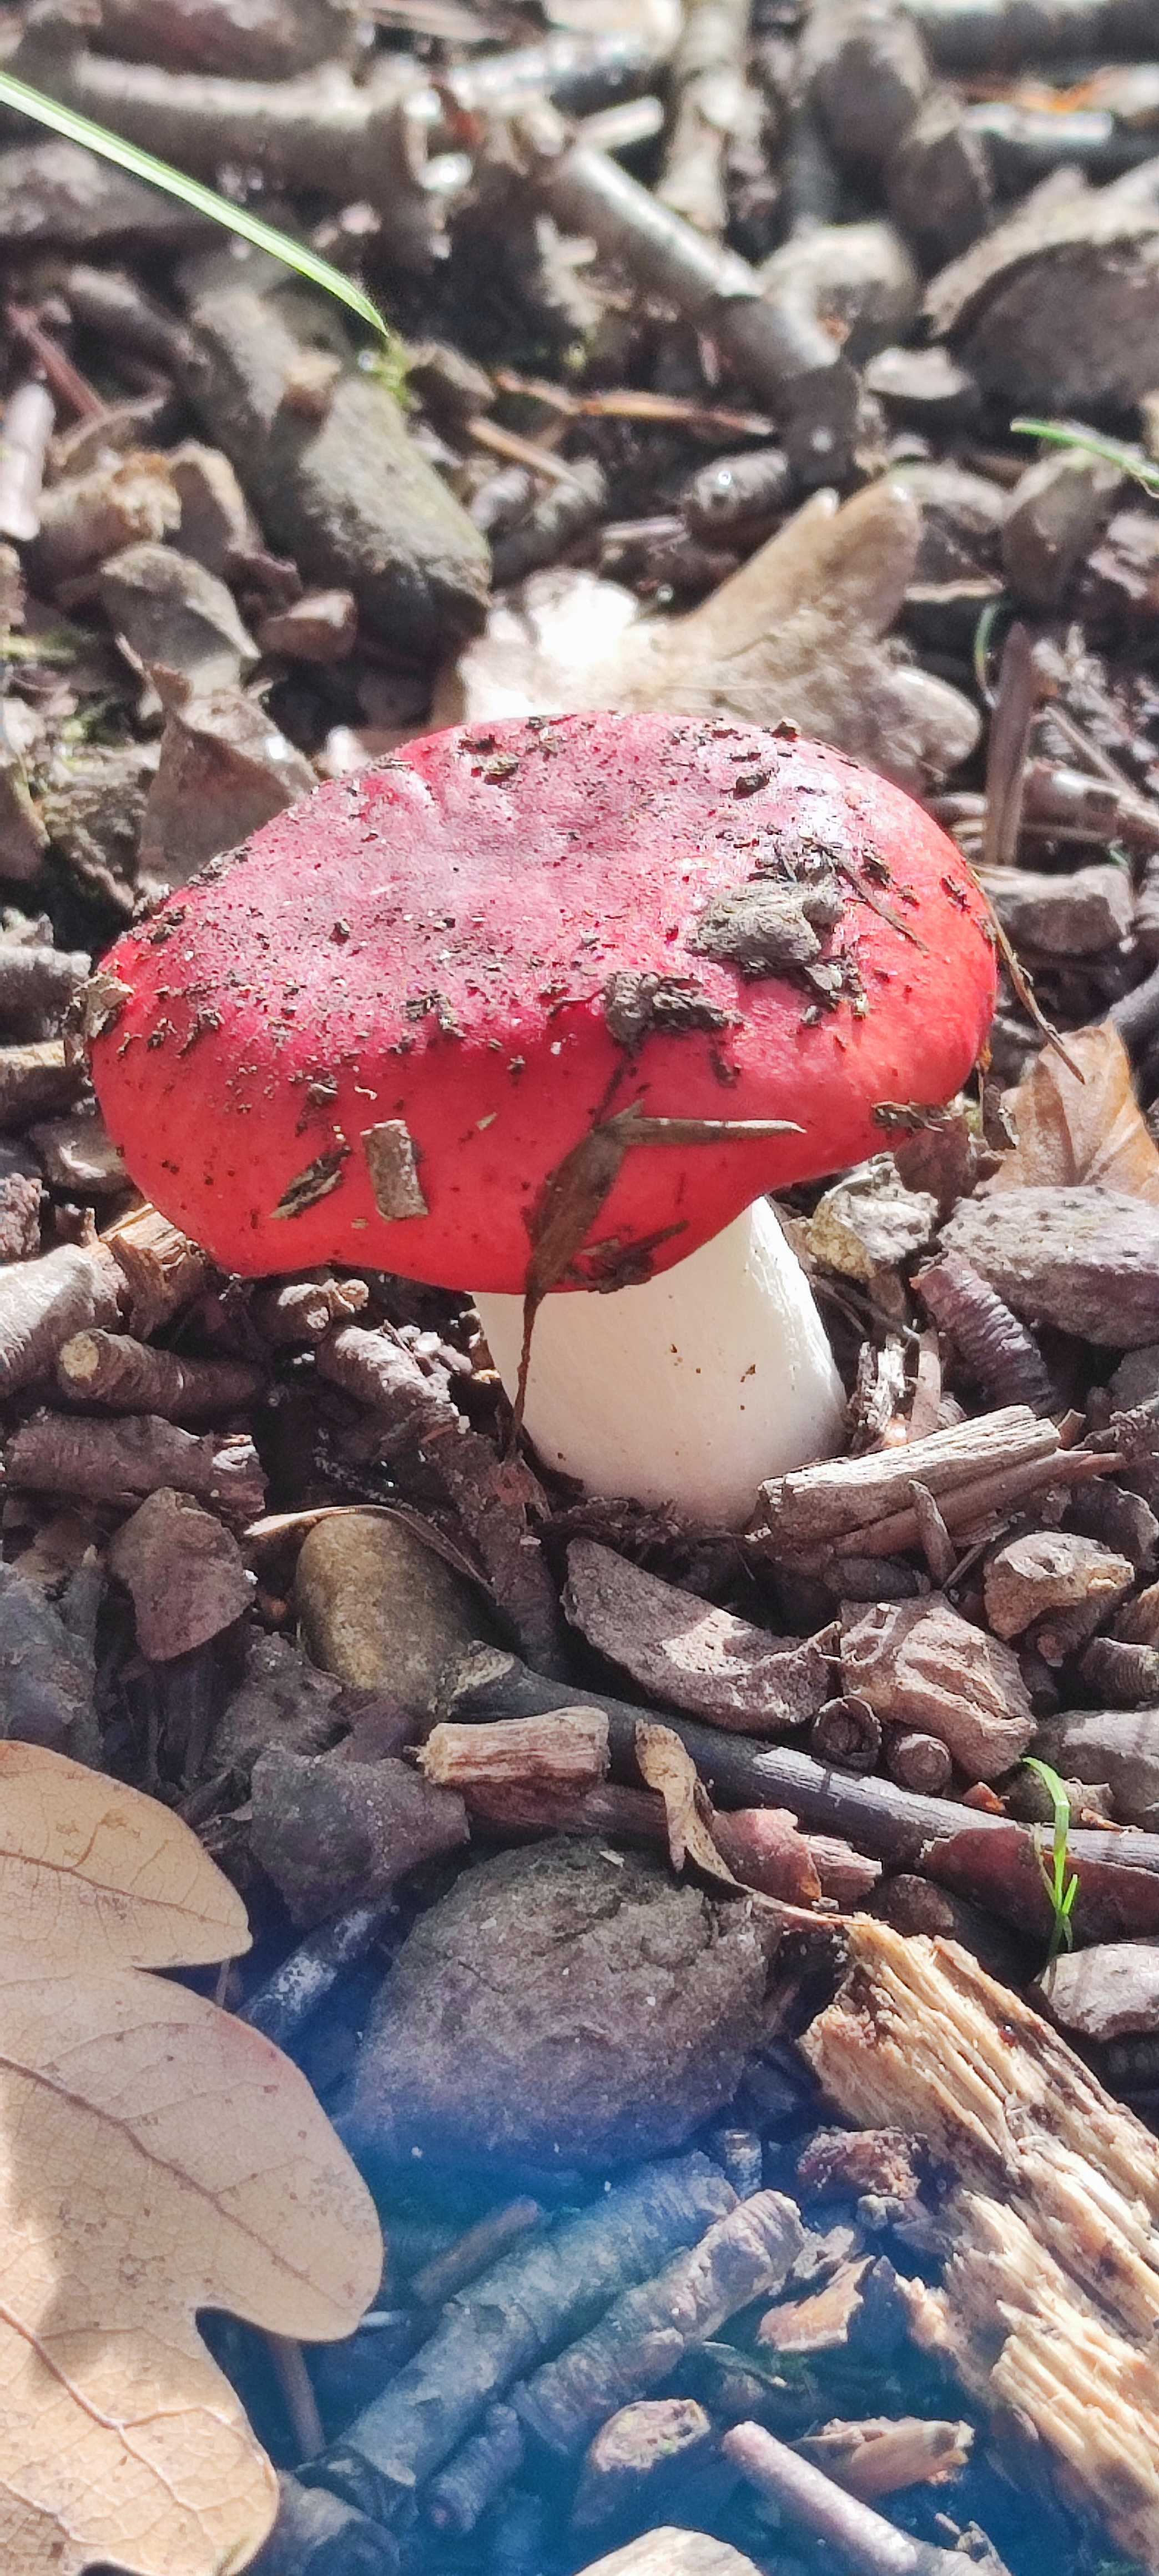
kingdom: Fungi
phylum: Basidiomycota
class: Agaricomycetes
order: Russulales
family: Russulaceae
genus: Russula
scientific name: Russula
